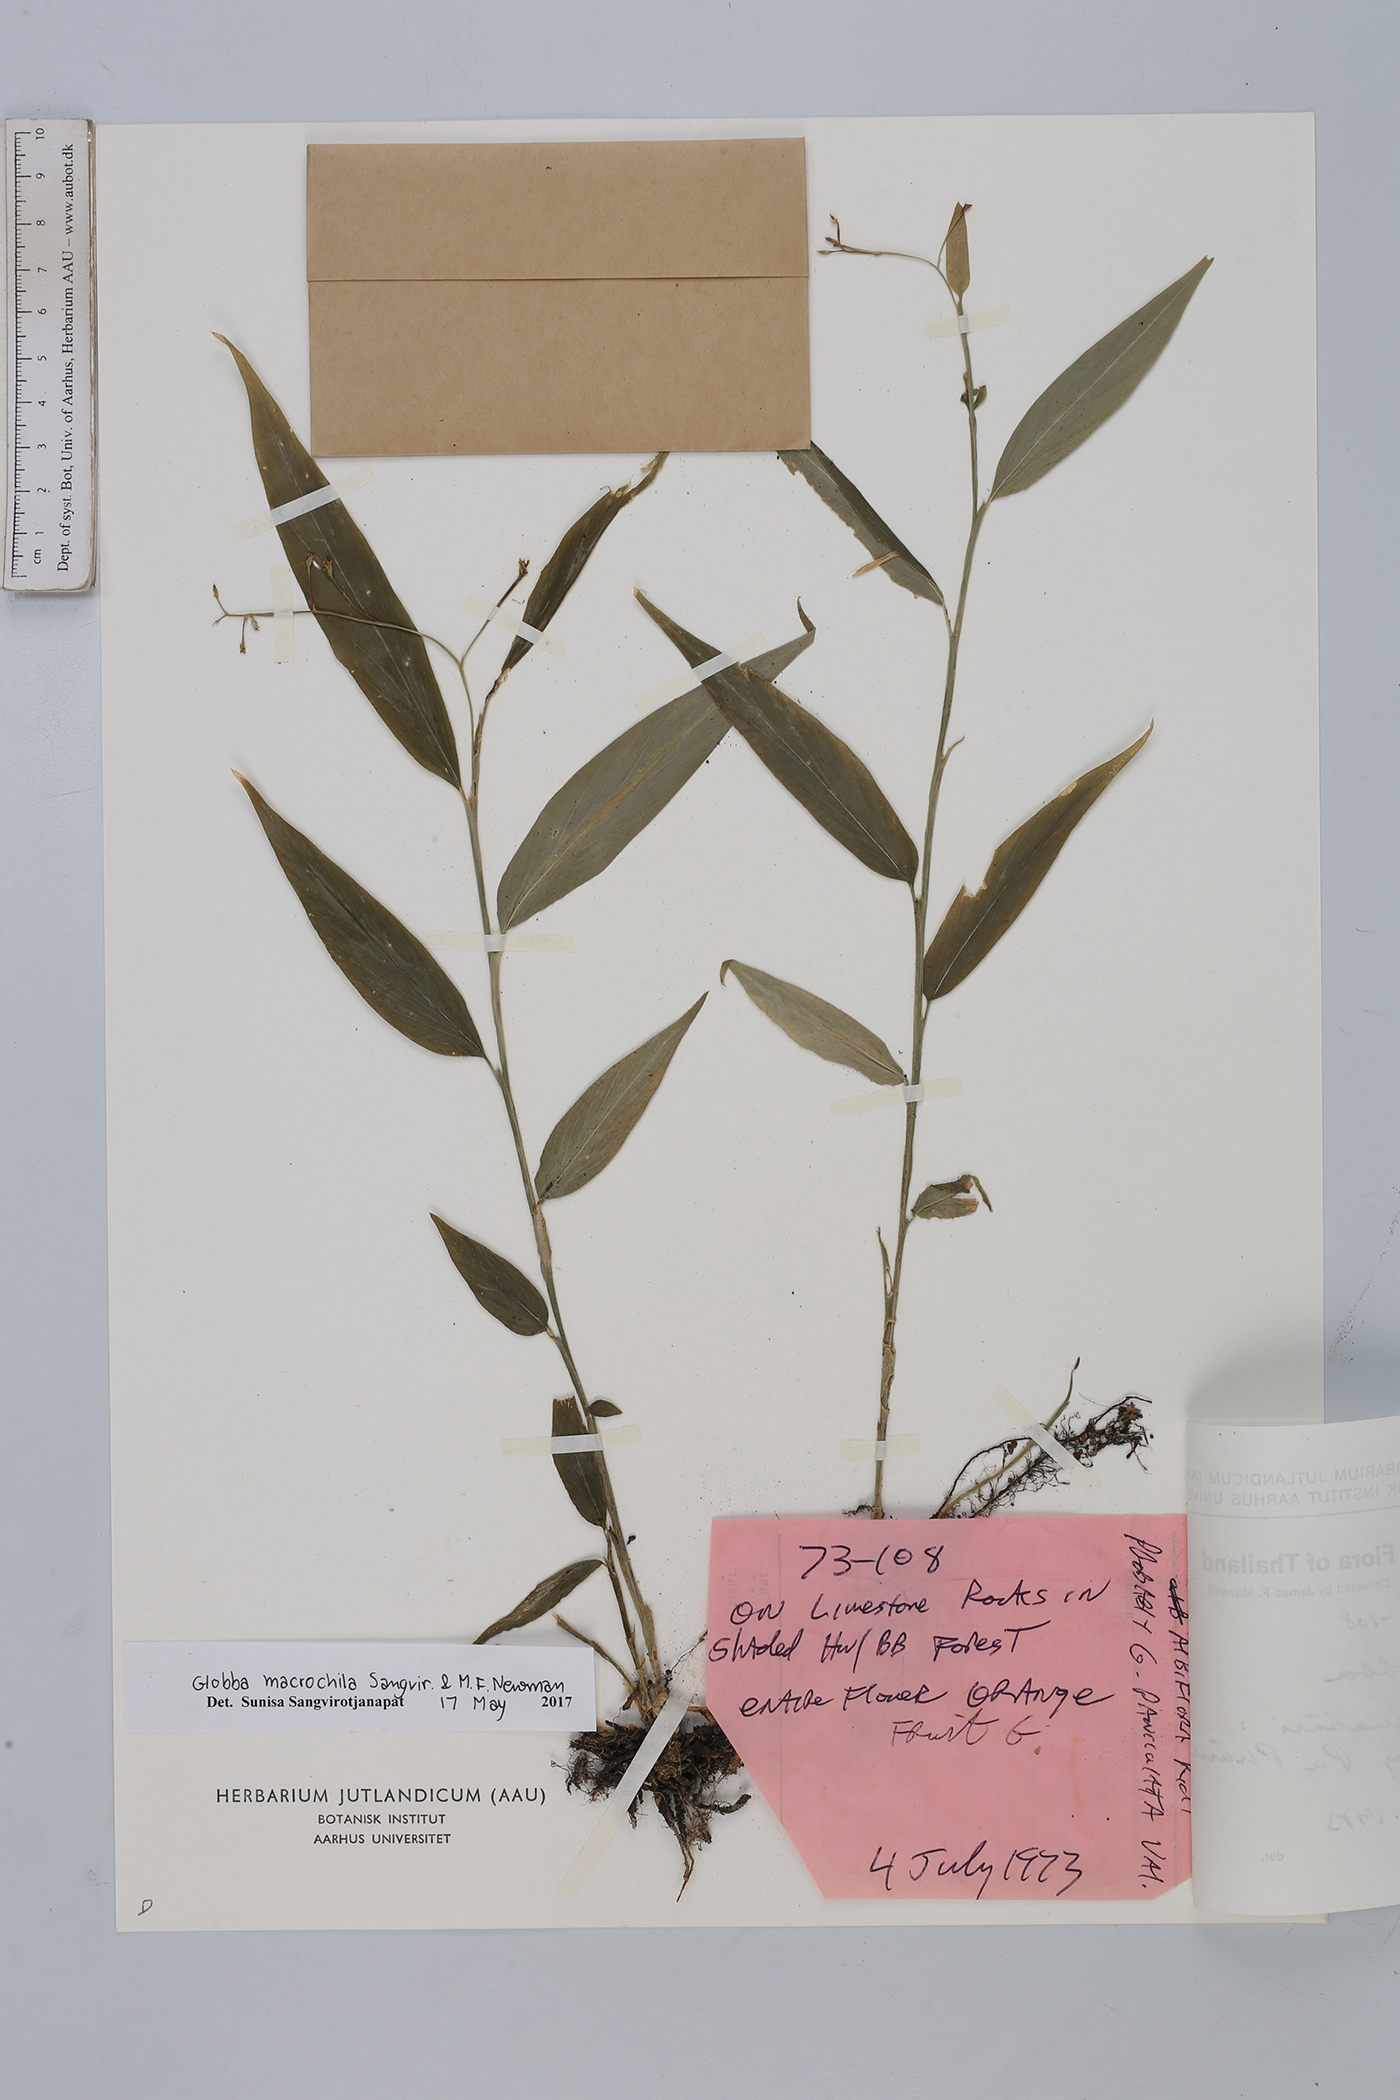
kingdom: Plantae
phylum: Tracheophyta
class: Liliopsida
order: Zingiberales
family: Zingiberaceae
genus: Globba
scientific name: Globba macrochila
